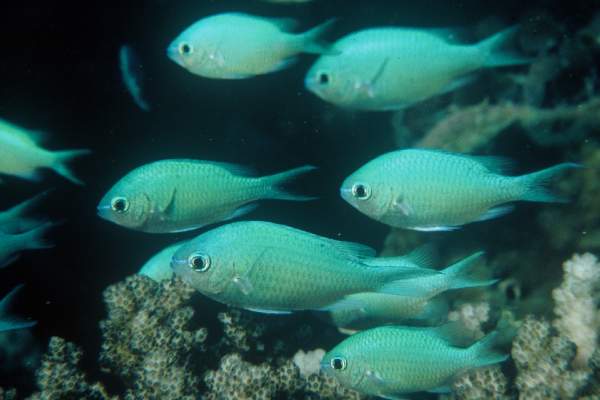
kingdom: Animalia
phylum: Chordata
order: Perciformes
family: Pomacentridae
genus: Chromis
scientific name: Chromis viridis
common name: Blue-green chromis
